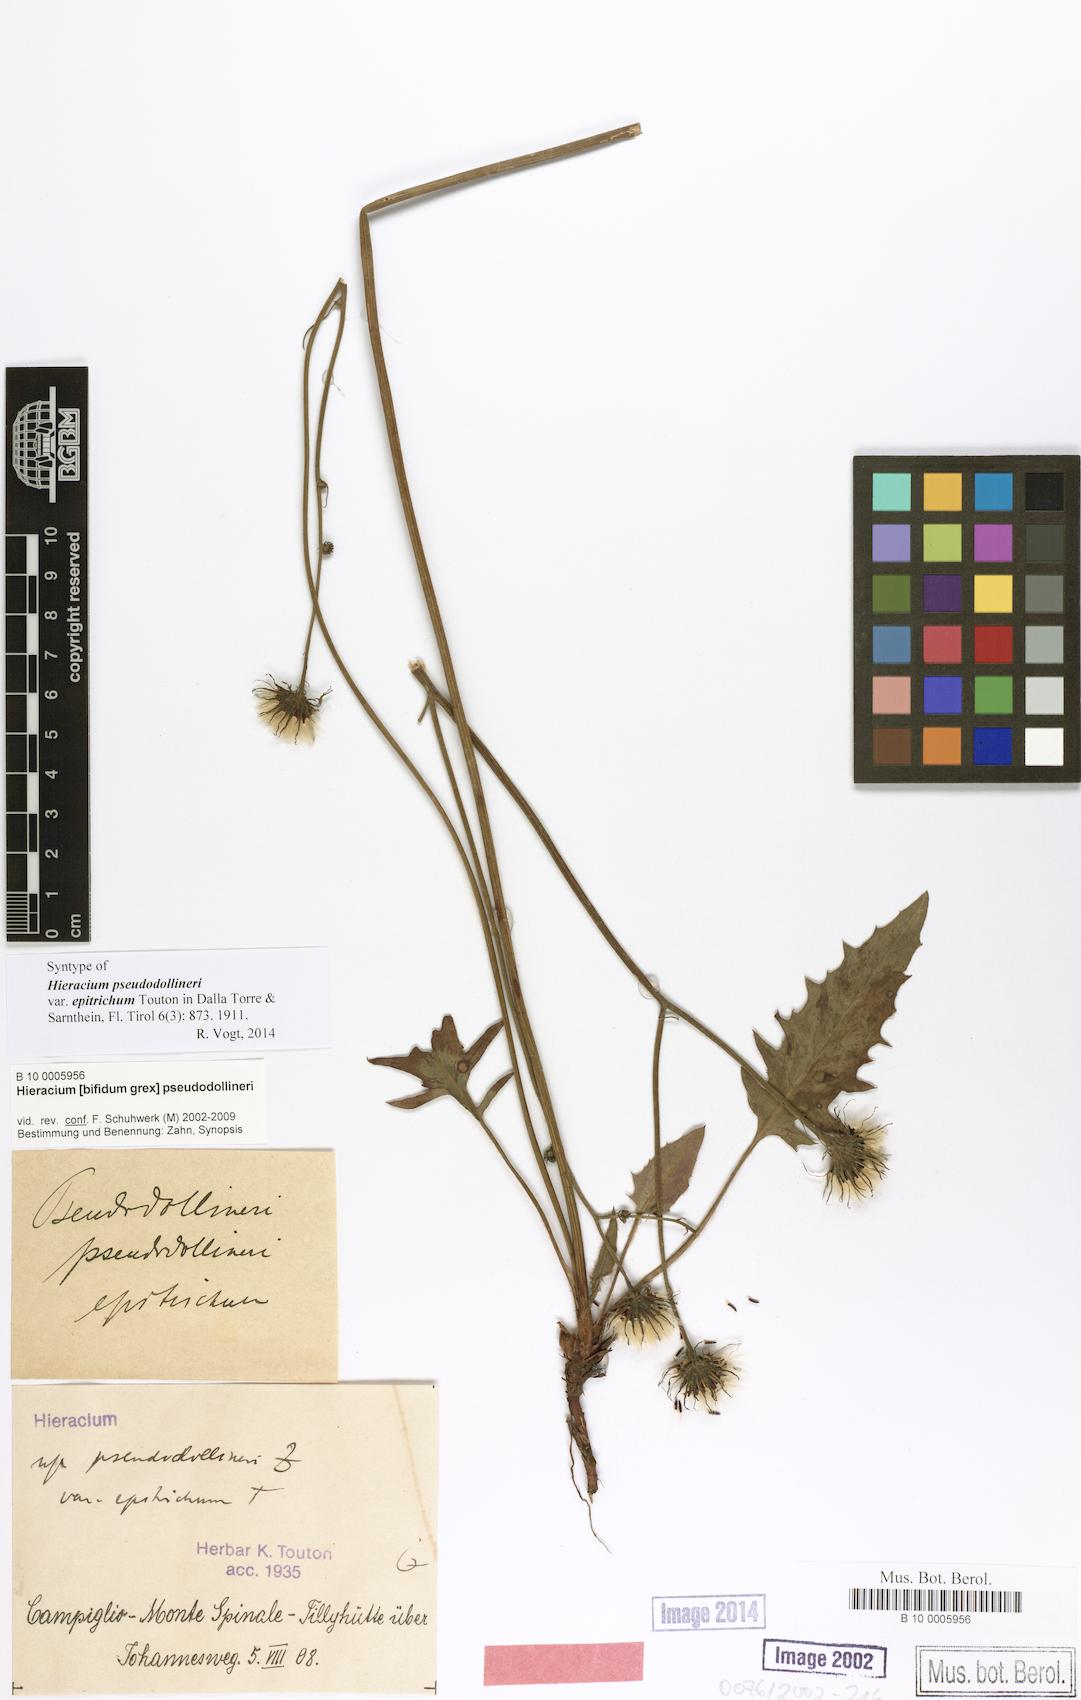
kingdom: Plantae
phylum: Tracheophyta
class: Magnoliopsida
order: Asterales
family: Asteraceae
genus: Hieracium
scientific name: Hieracium bifidum
